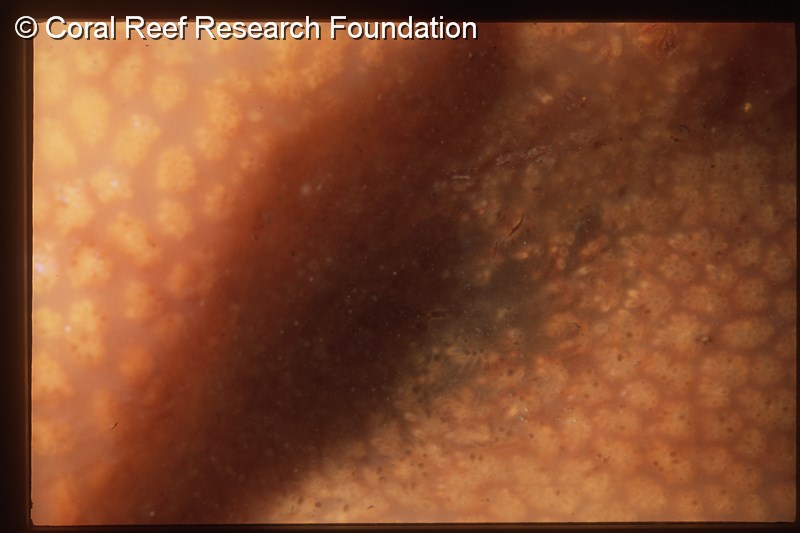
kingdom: Animalia
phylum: Chordata
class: Ascidiacea
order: Aplousobranchia
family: Polyclinidae
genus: Polyclinum
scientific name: Polyclinum
